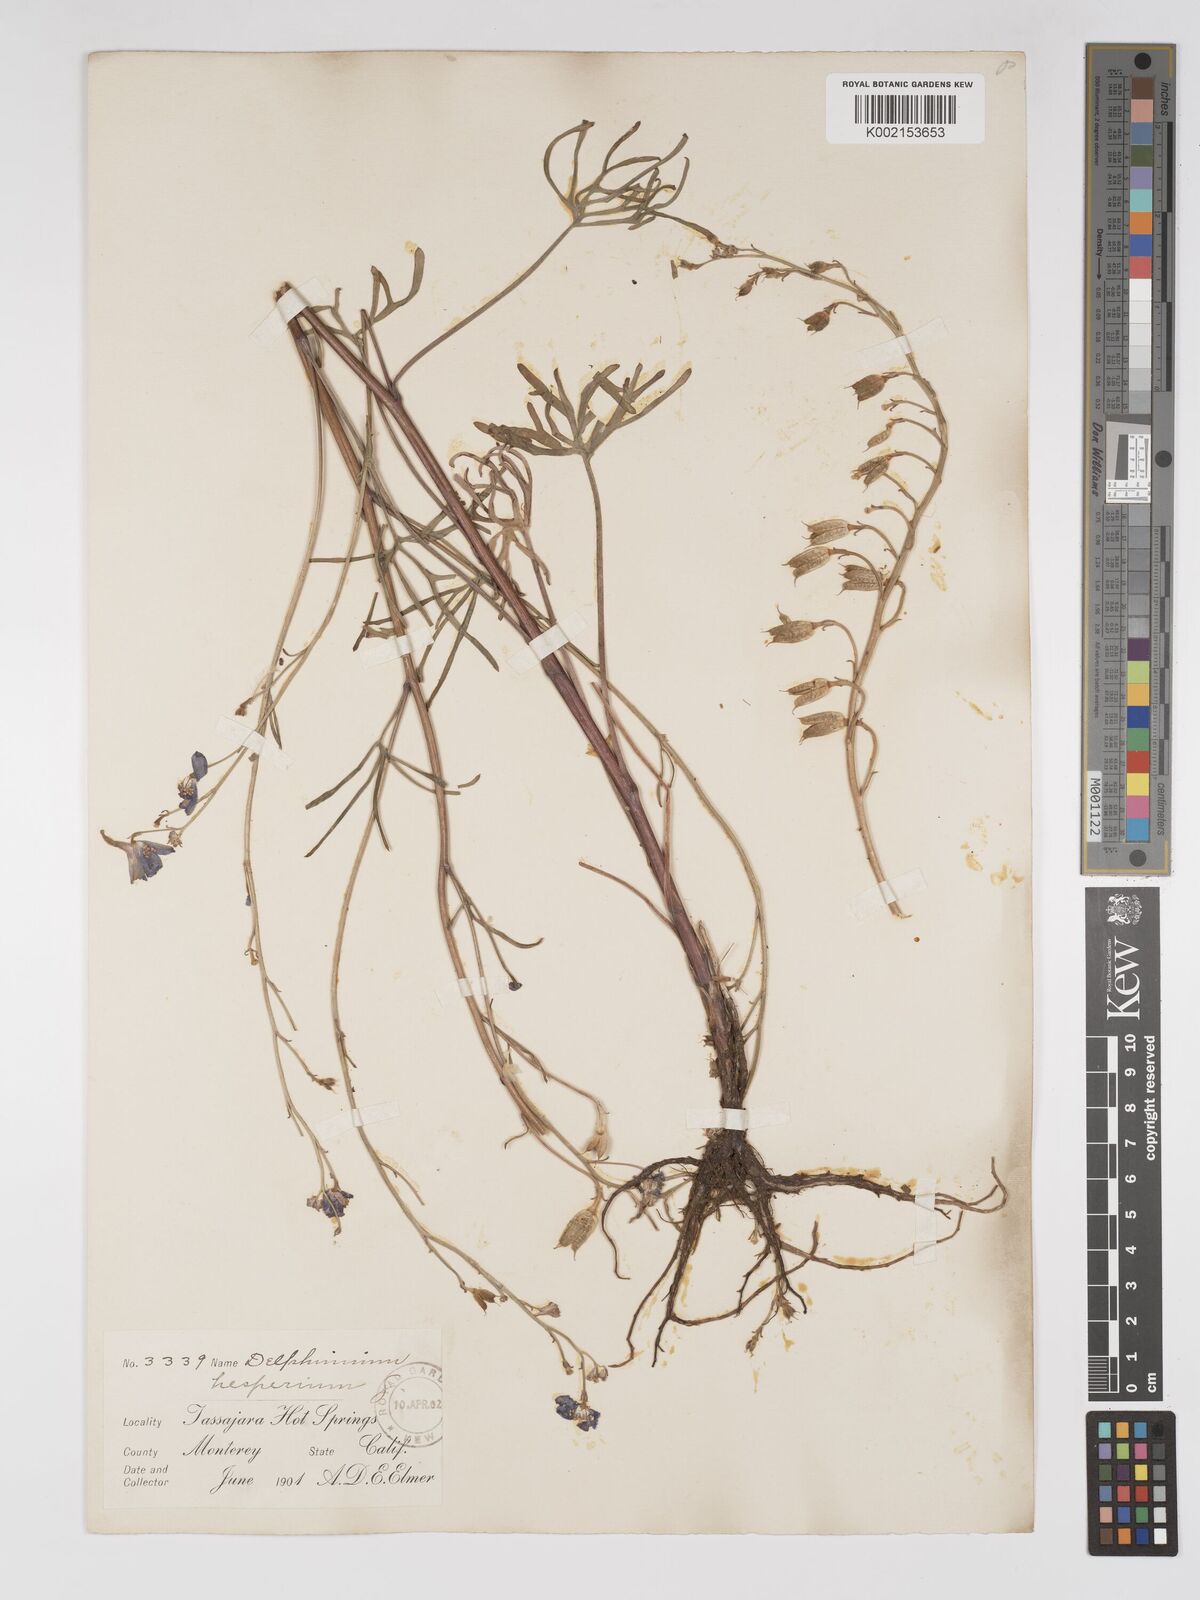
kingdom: Plantae
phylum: Tracheophyta
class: Magnoliopsida
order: Ranunculales
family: Ranunculaceae
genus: Delphinium
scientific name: Delphinium hesperium
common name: Western larkspur
